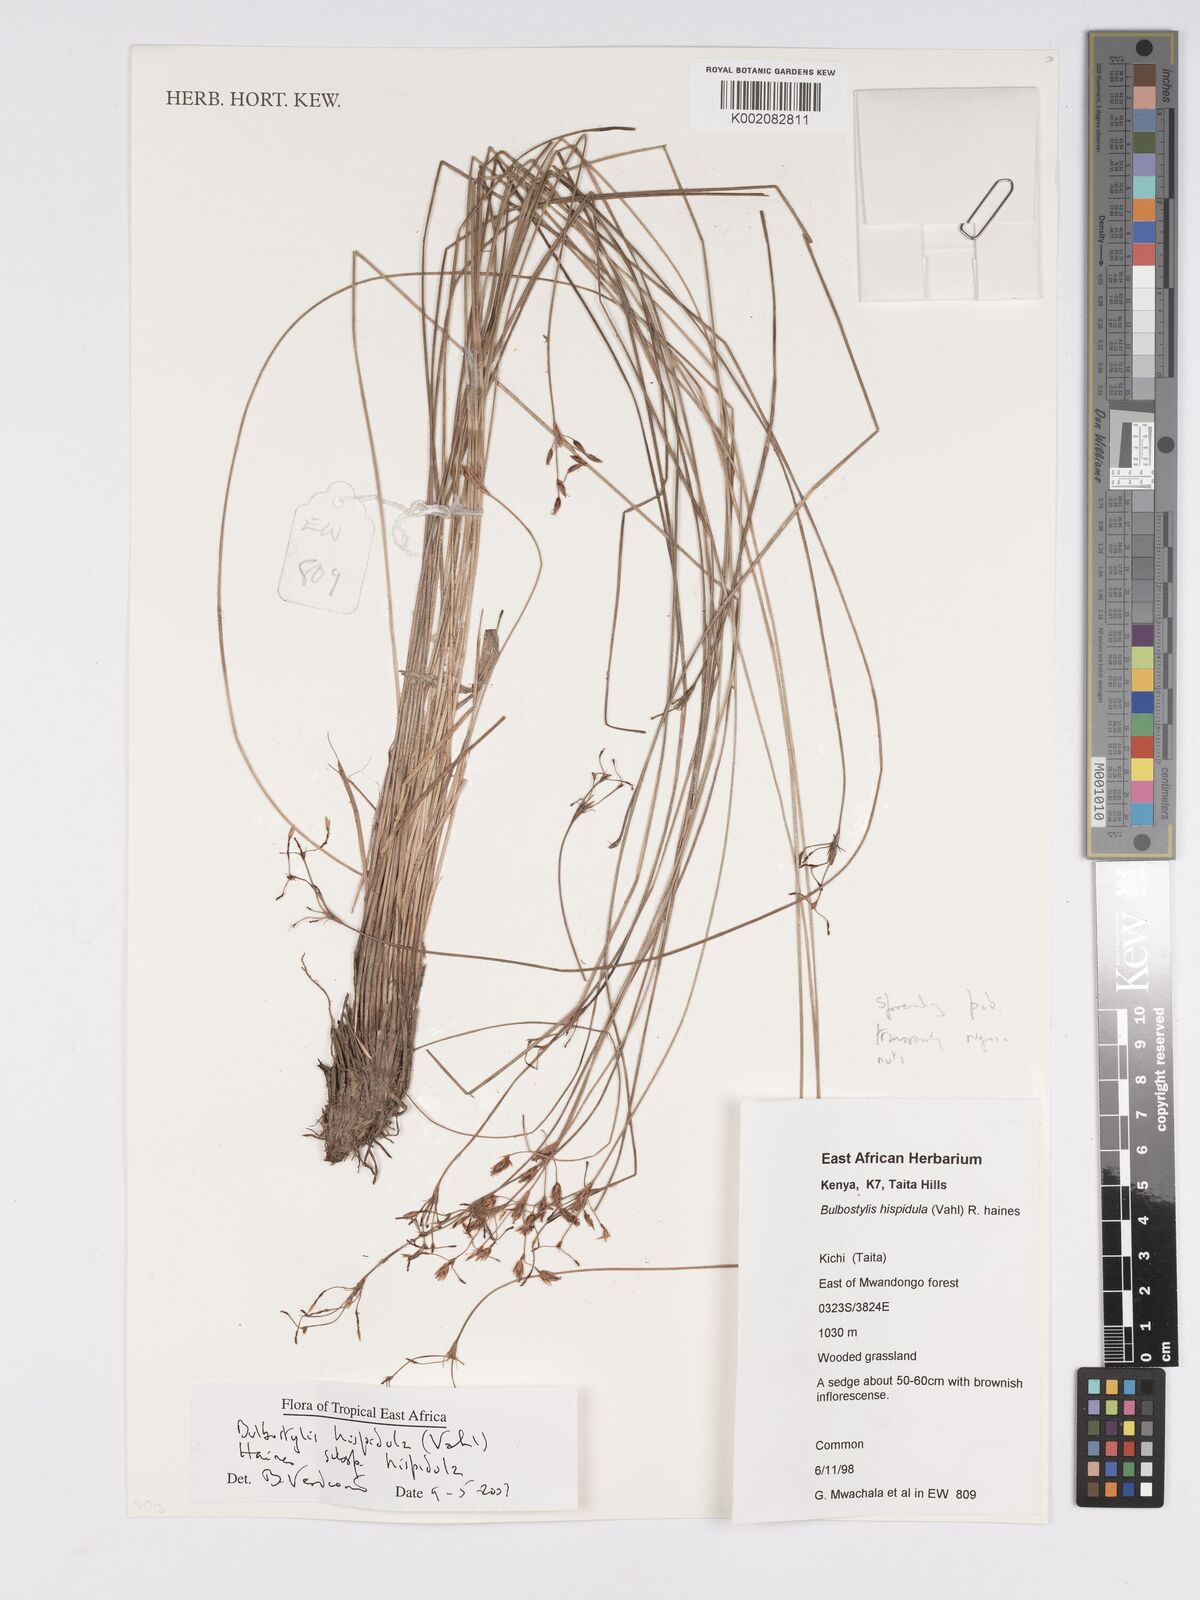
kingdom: Plantae
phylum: Tracheophyta
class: Liliopsida
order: Poales
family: Cyperaceae
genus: Bulbostylis
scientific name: Bulbostylis hispidula
